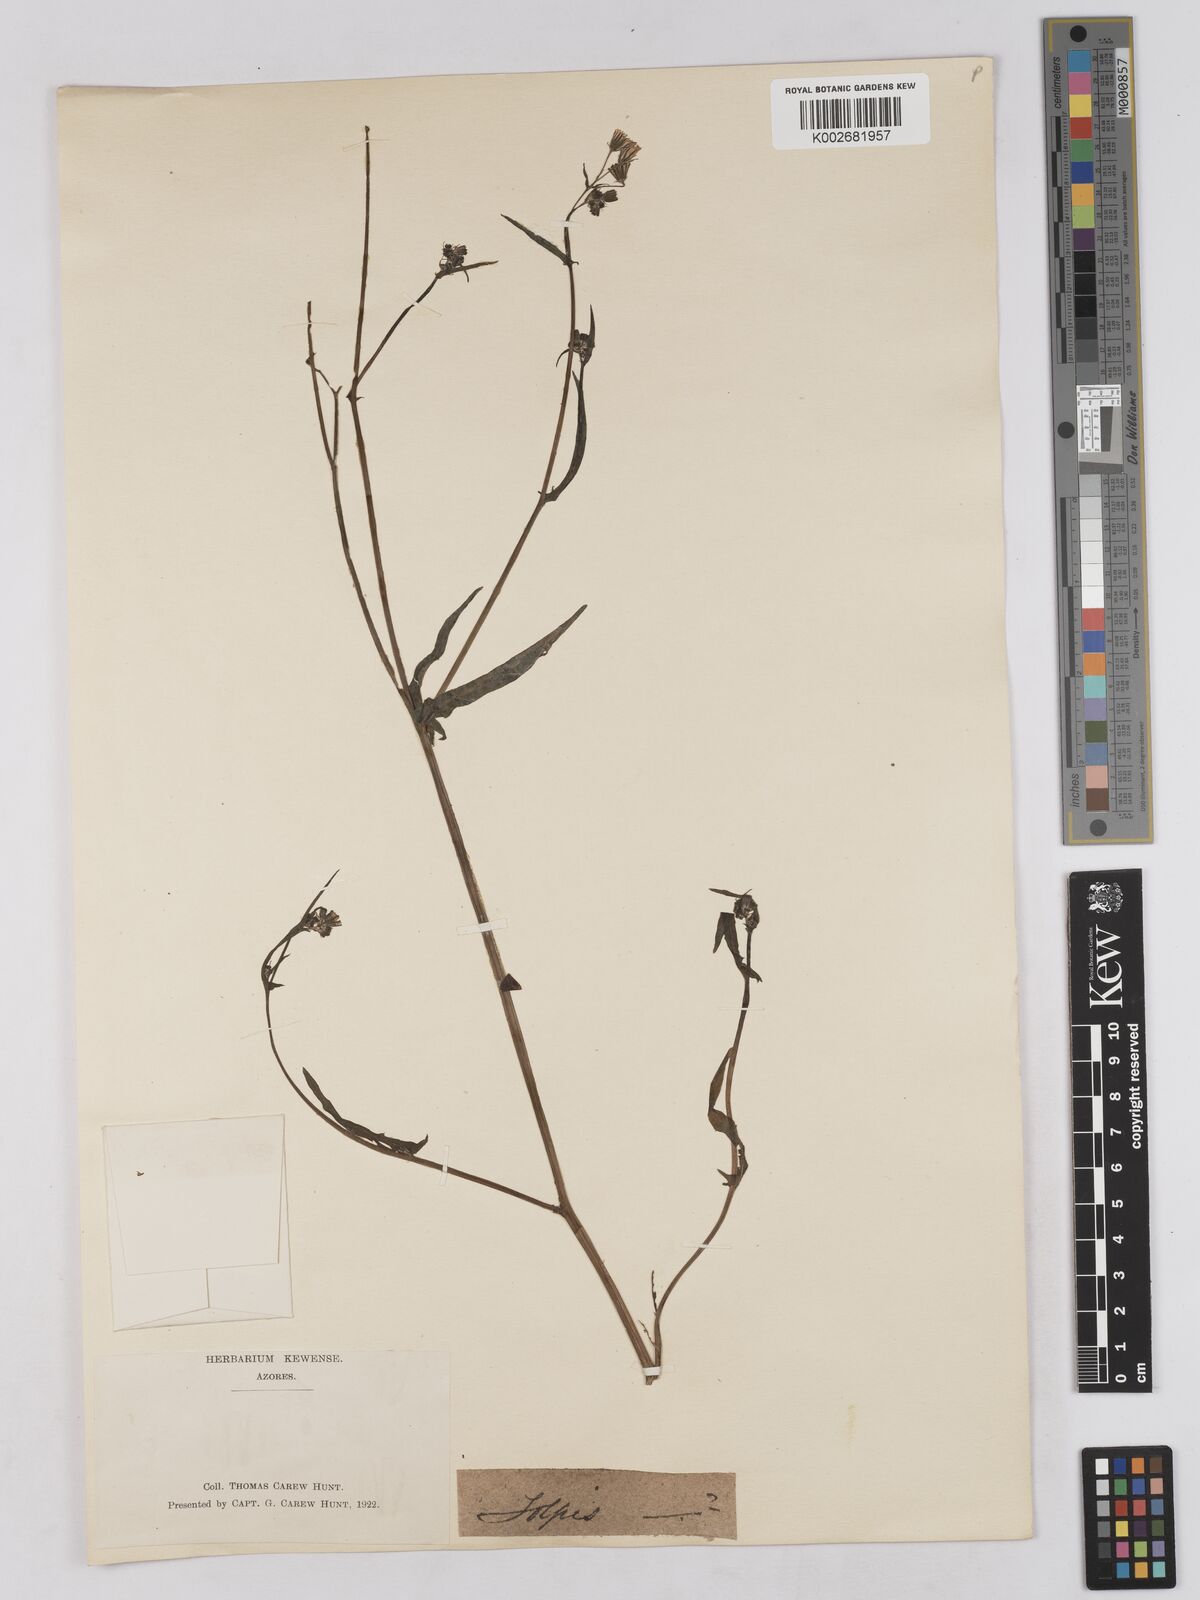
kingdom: Plantae
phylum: Tracheophyta
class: Magnoliopsida
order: Asterales
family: Asteraceae
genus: Tolpis
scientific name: Tolpis
